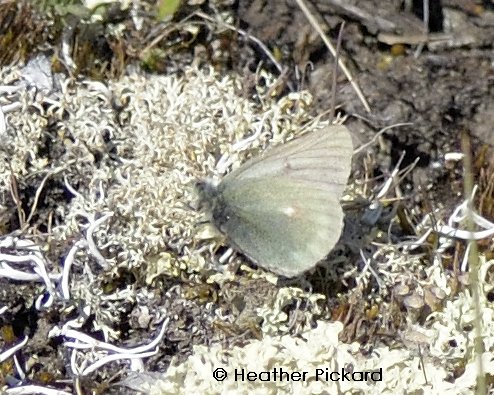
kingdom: Animalia
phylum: Arthropoda
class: Insecta
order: Lepidoptera
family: Pieridae
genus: Colias
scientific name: Colias nastes
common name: Labrador Sulphur
